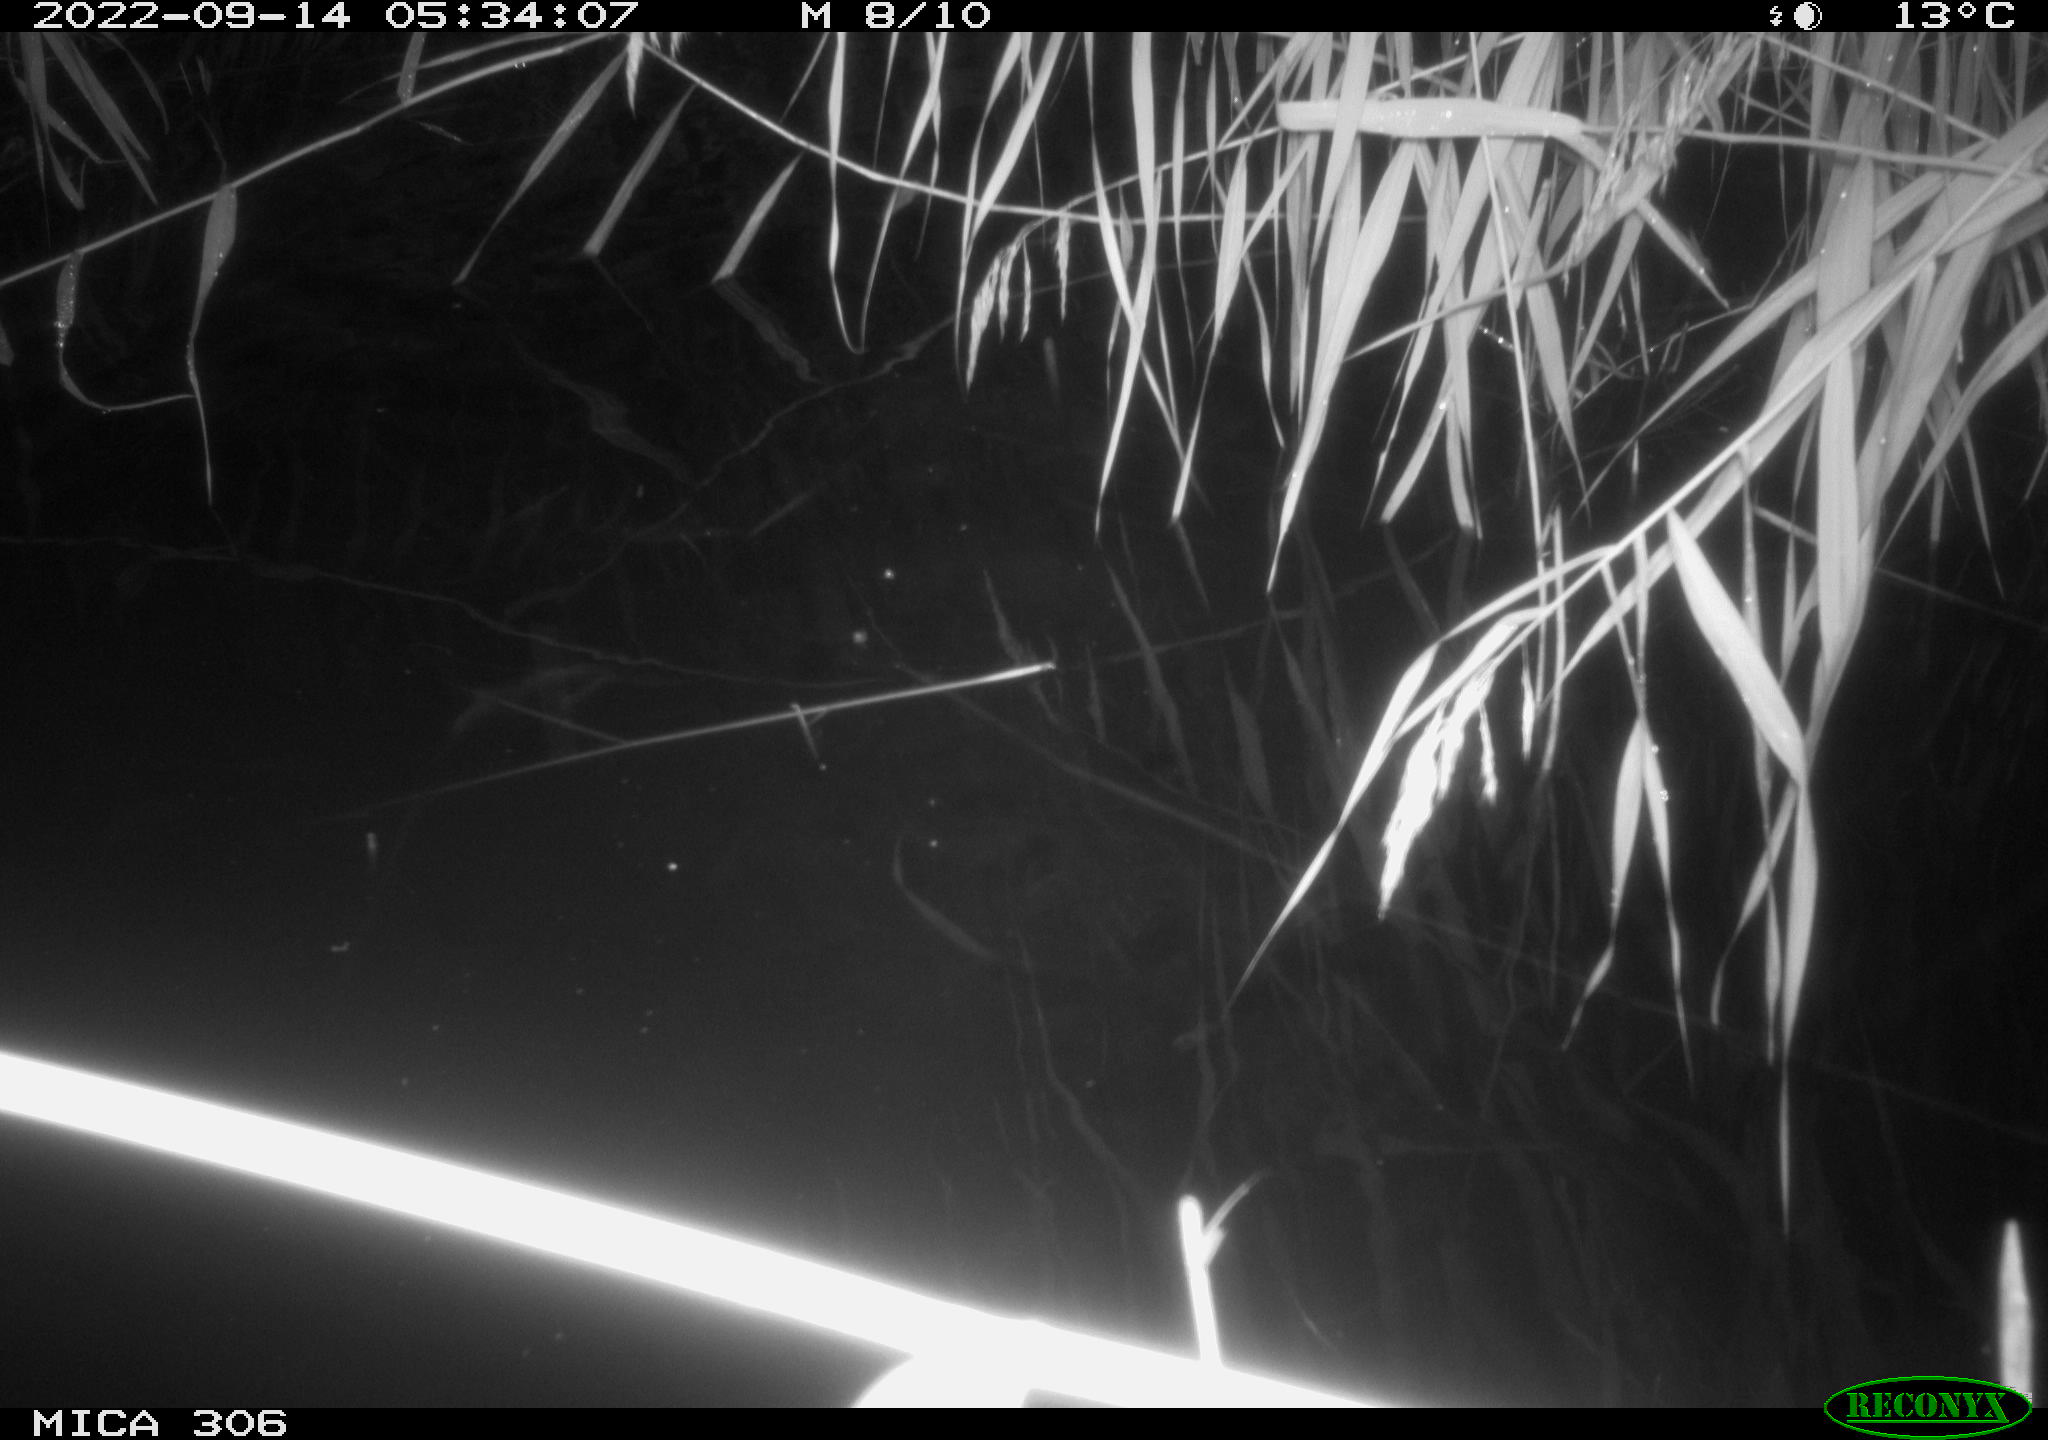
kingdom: Animalia
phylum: Chordata
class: Mammalia
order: Rodentia
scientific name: Rodentia
